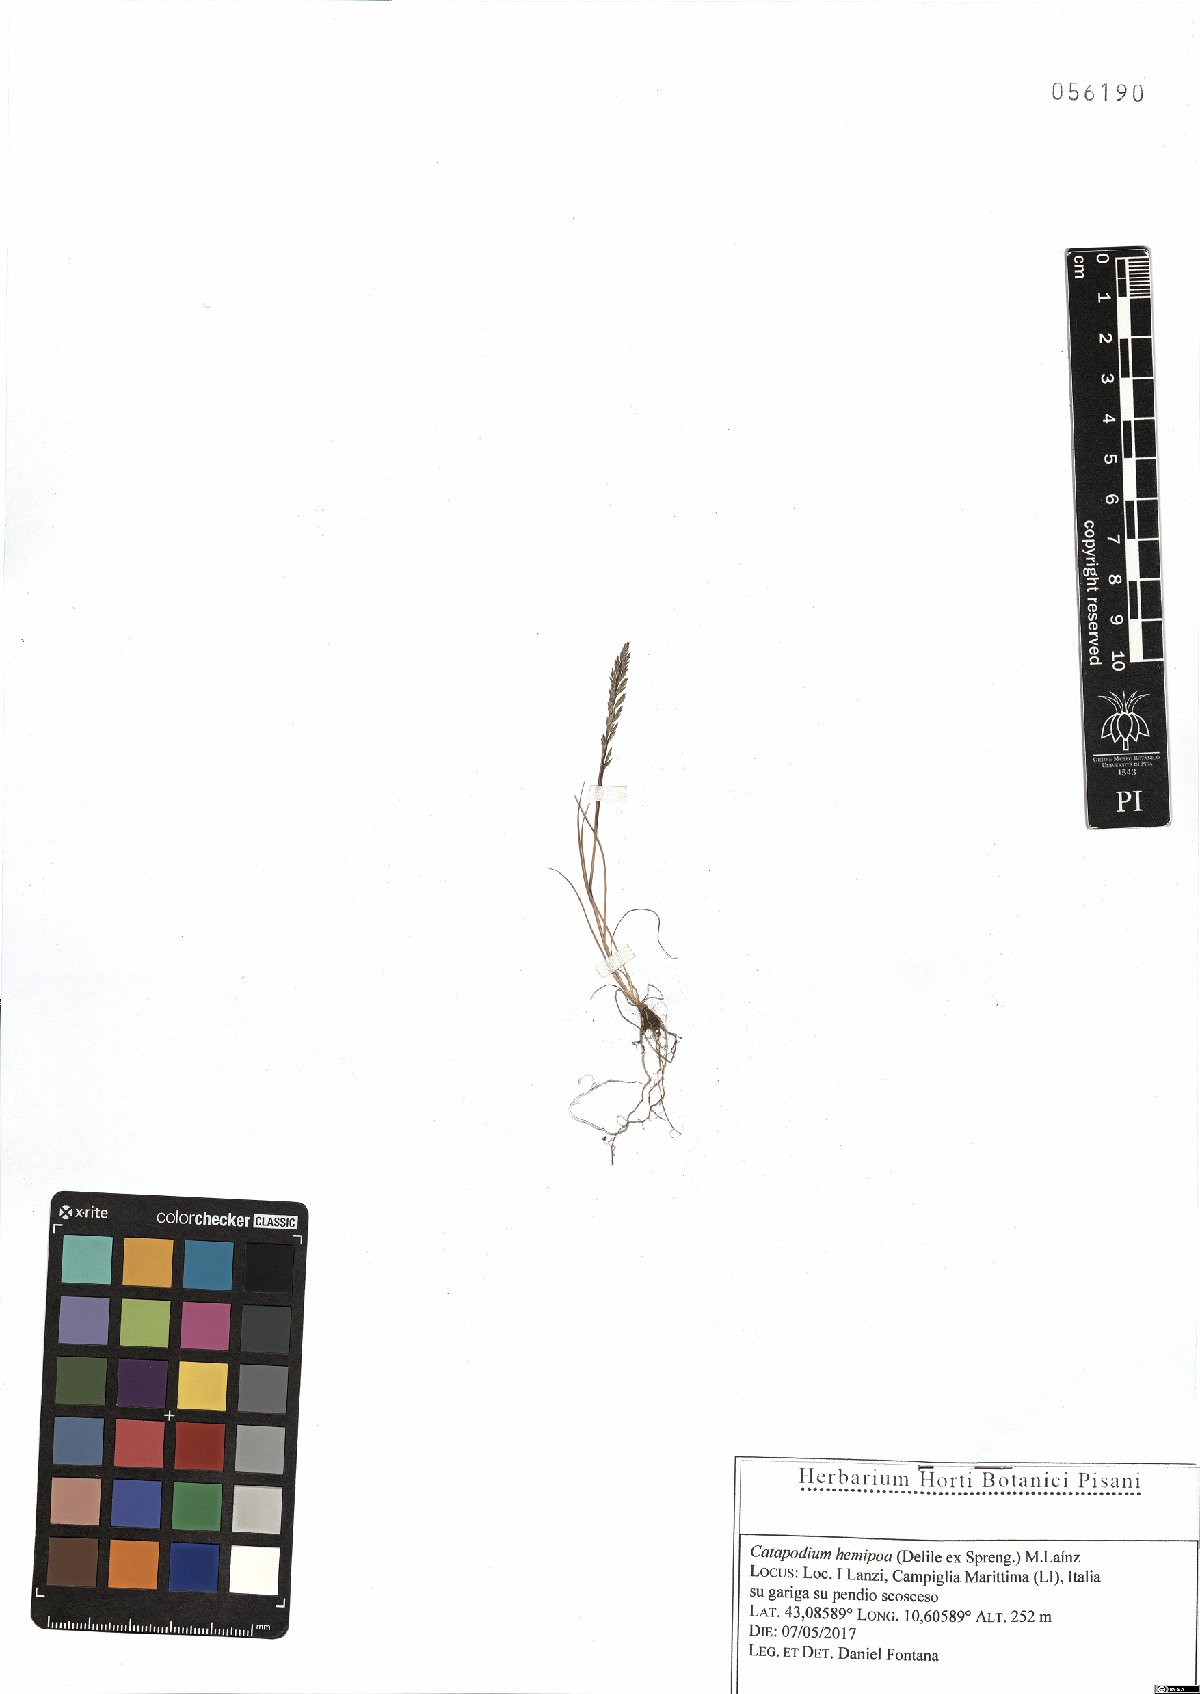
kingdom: Plantae
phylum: Tracheophyta
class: Liliopsida
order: Poales
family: Poaceae
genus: Catapodium
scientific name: Catapodium hemipoa
